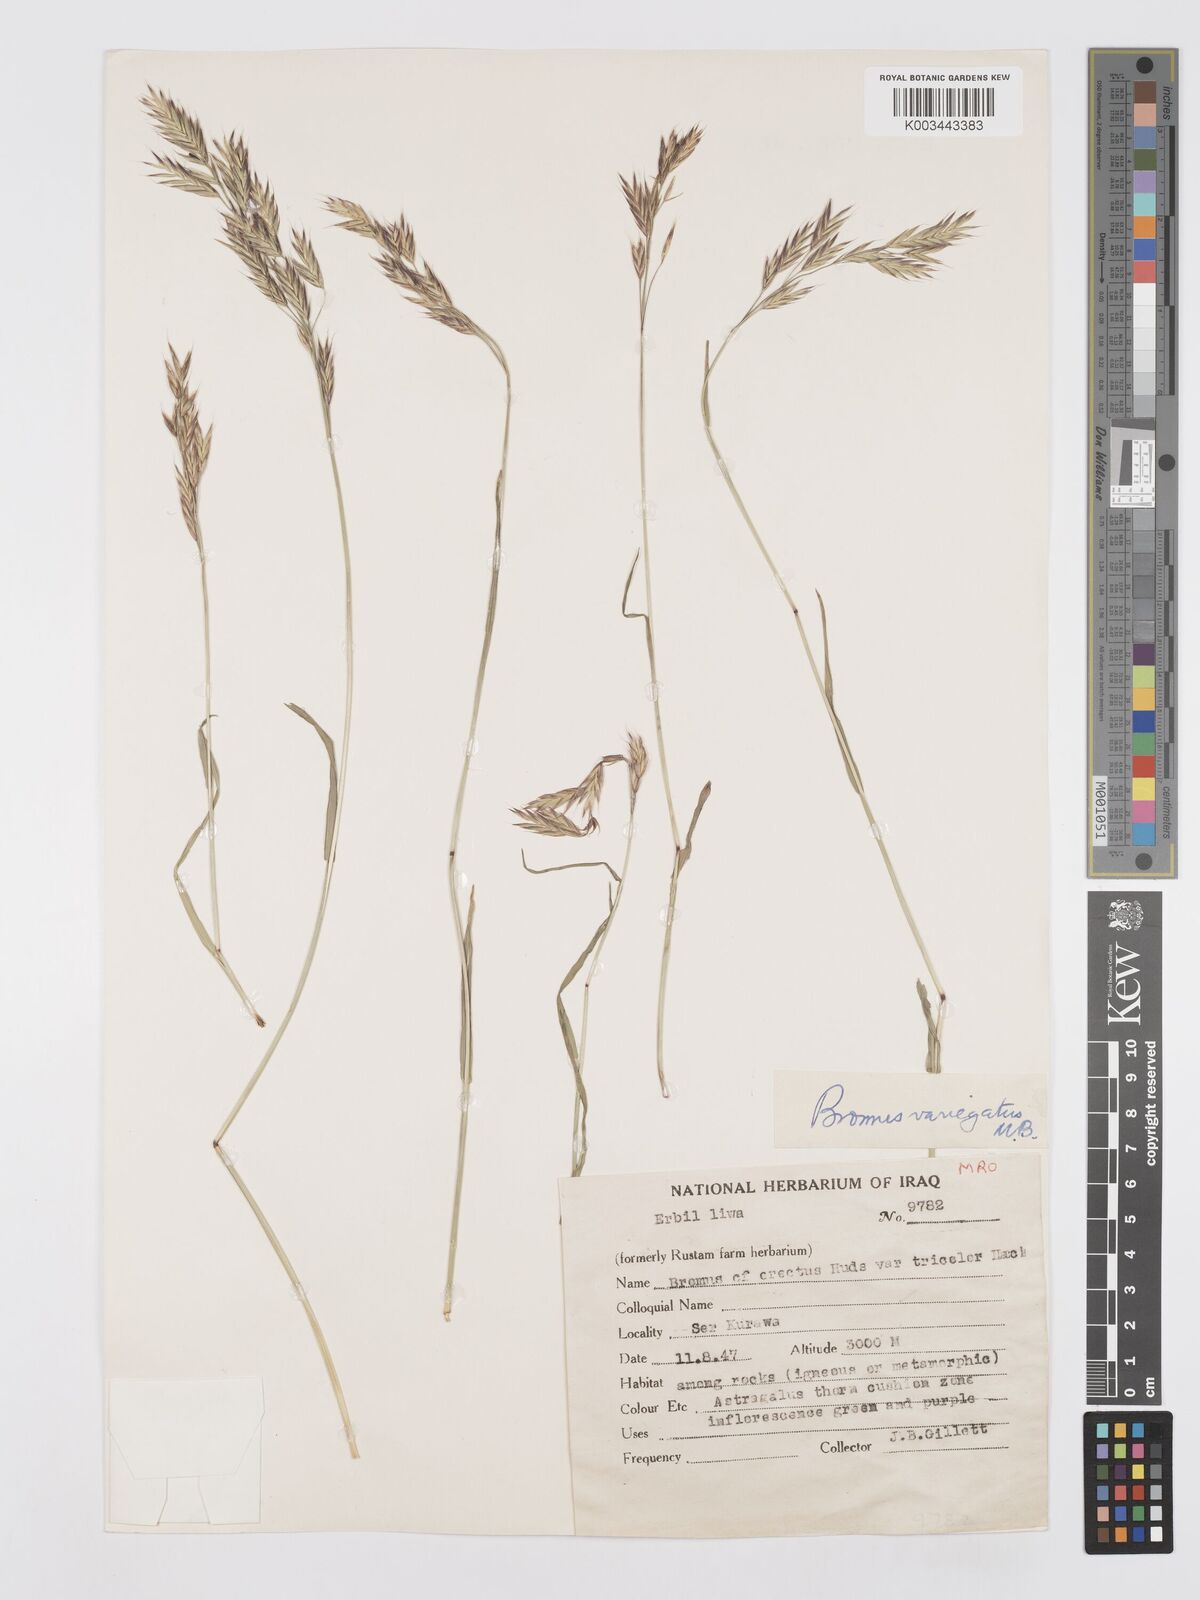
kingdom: Plantae
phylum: Tracheophyta
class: Liliopsida
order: Poales
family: Poaceae
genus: Bromus
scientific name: Bromus variegatus
